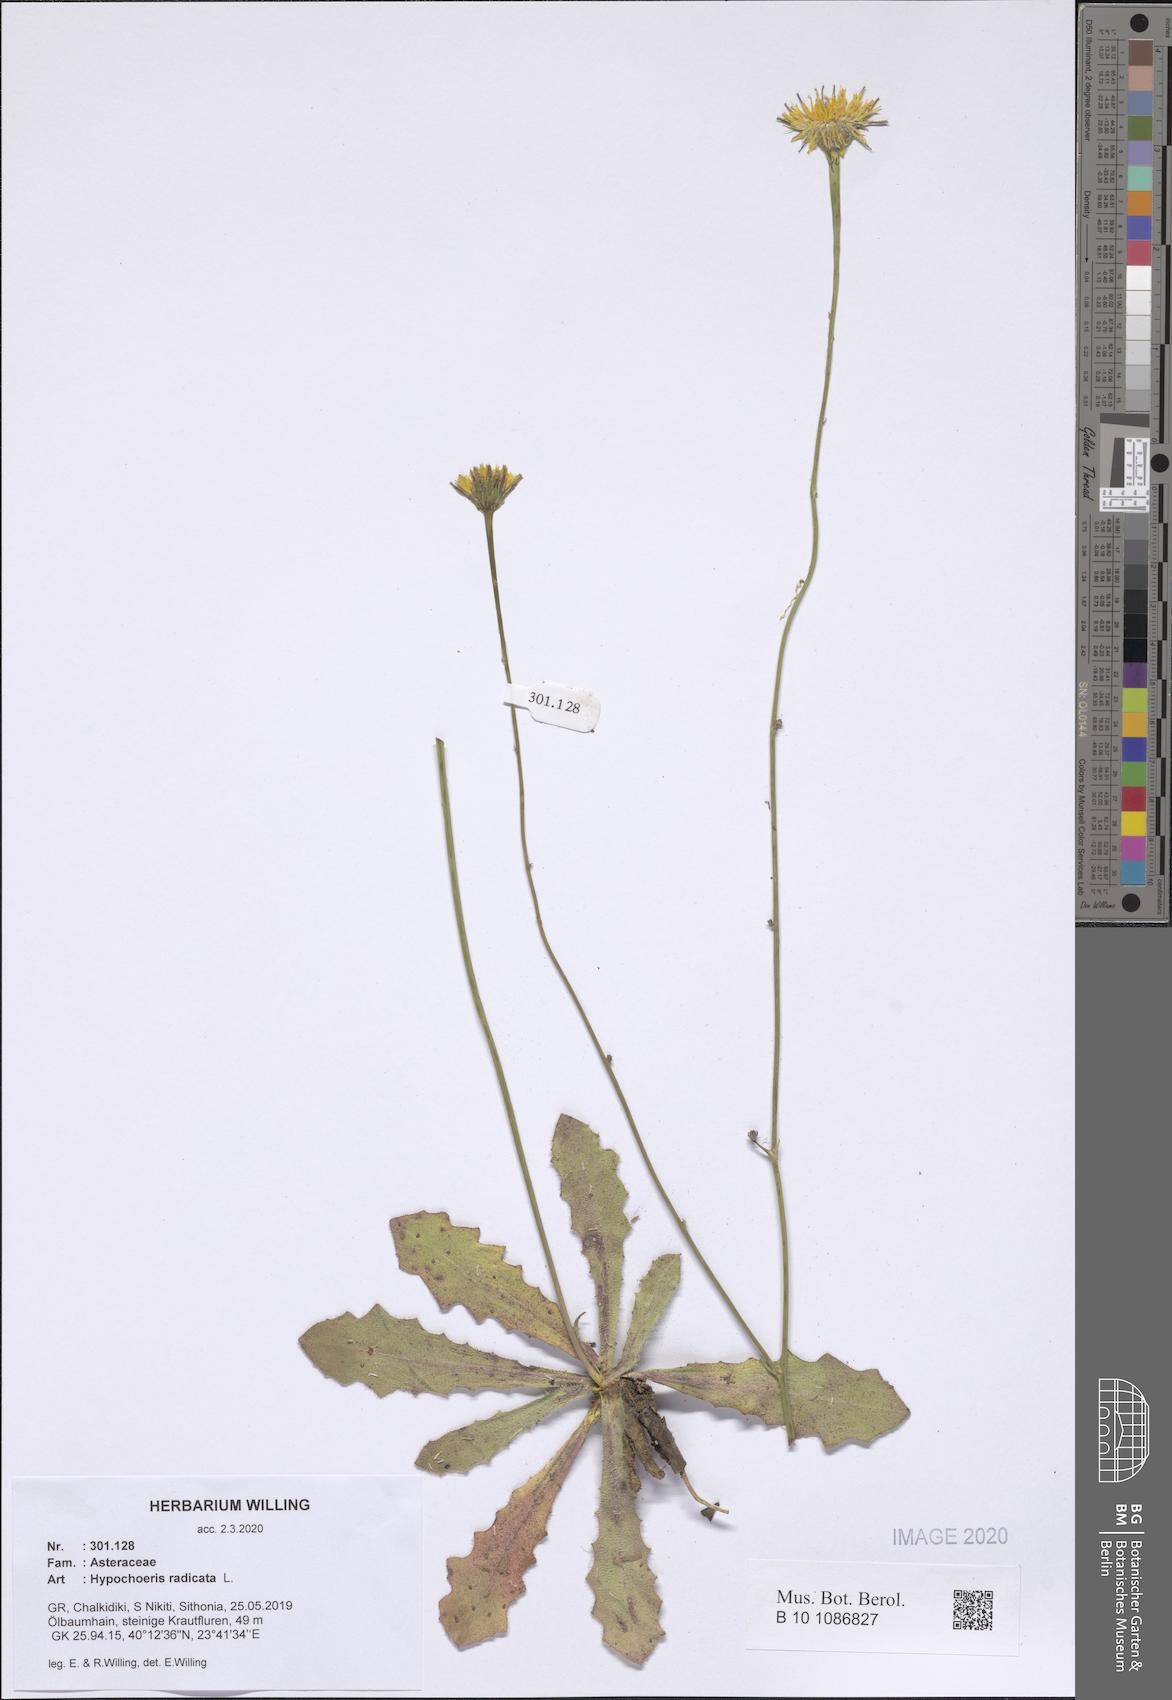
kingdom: Plantae
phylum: Tracheophyta
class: Magnoliopsida
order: Asterales
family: Asteraceae
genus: Hypochaeris
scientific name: Hypochaeris radicata
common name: Flatweed
